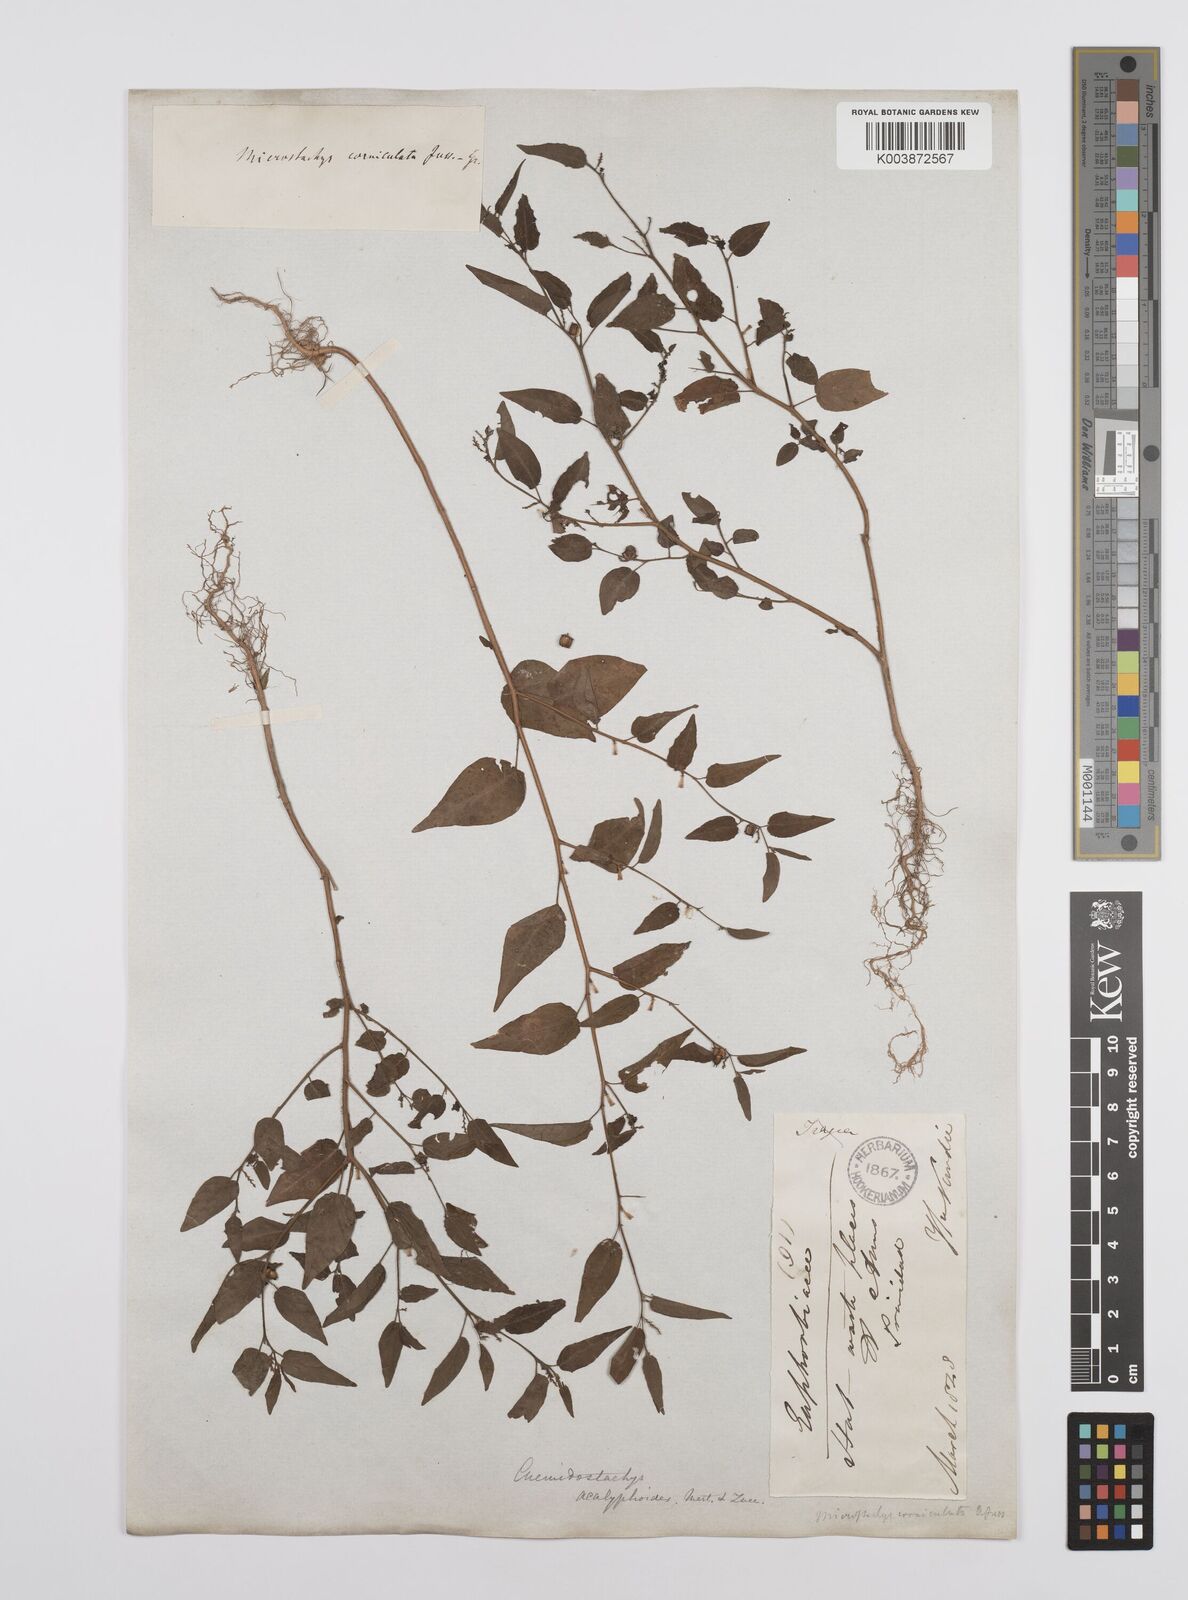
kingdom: Plantae
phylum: Tracheophyta
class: Magnoliopsida
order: Malpighiales
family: Euphorbiaceae
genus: Microstachys
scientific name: Microstachys corniculata
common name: Hato tejas
